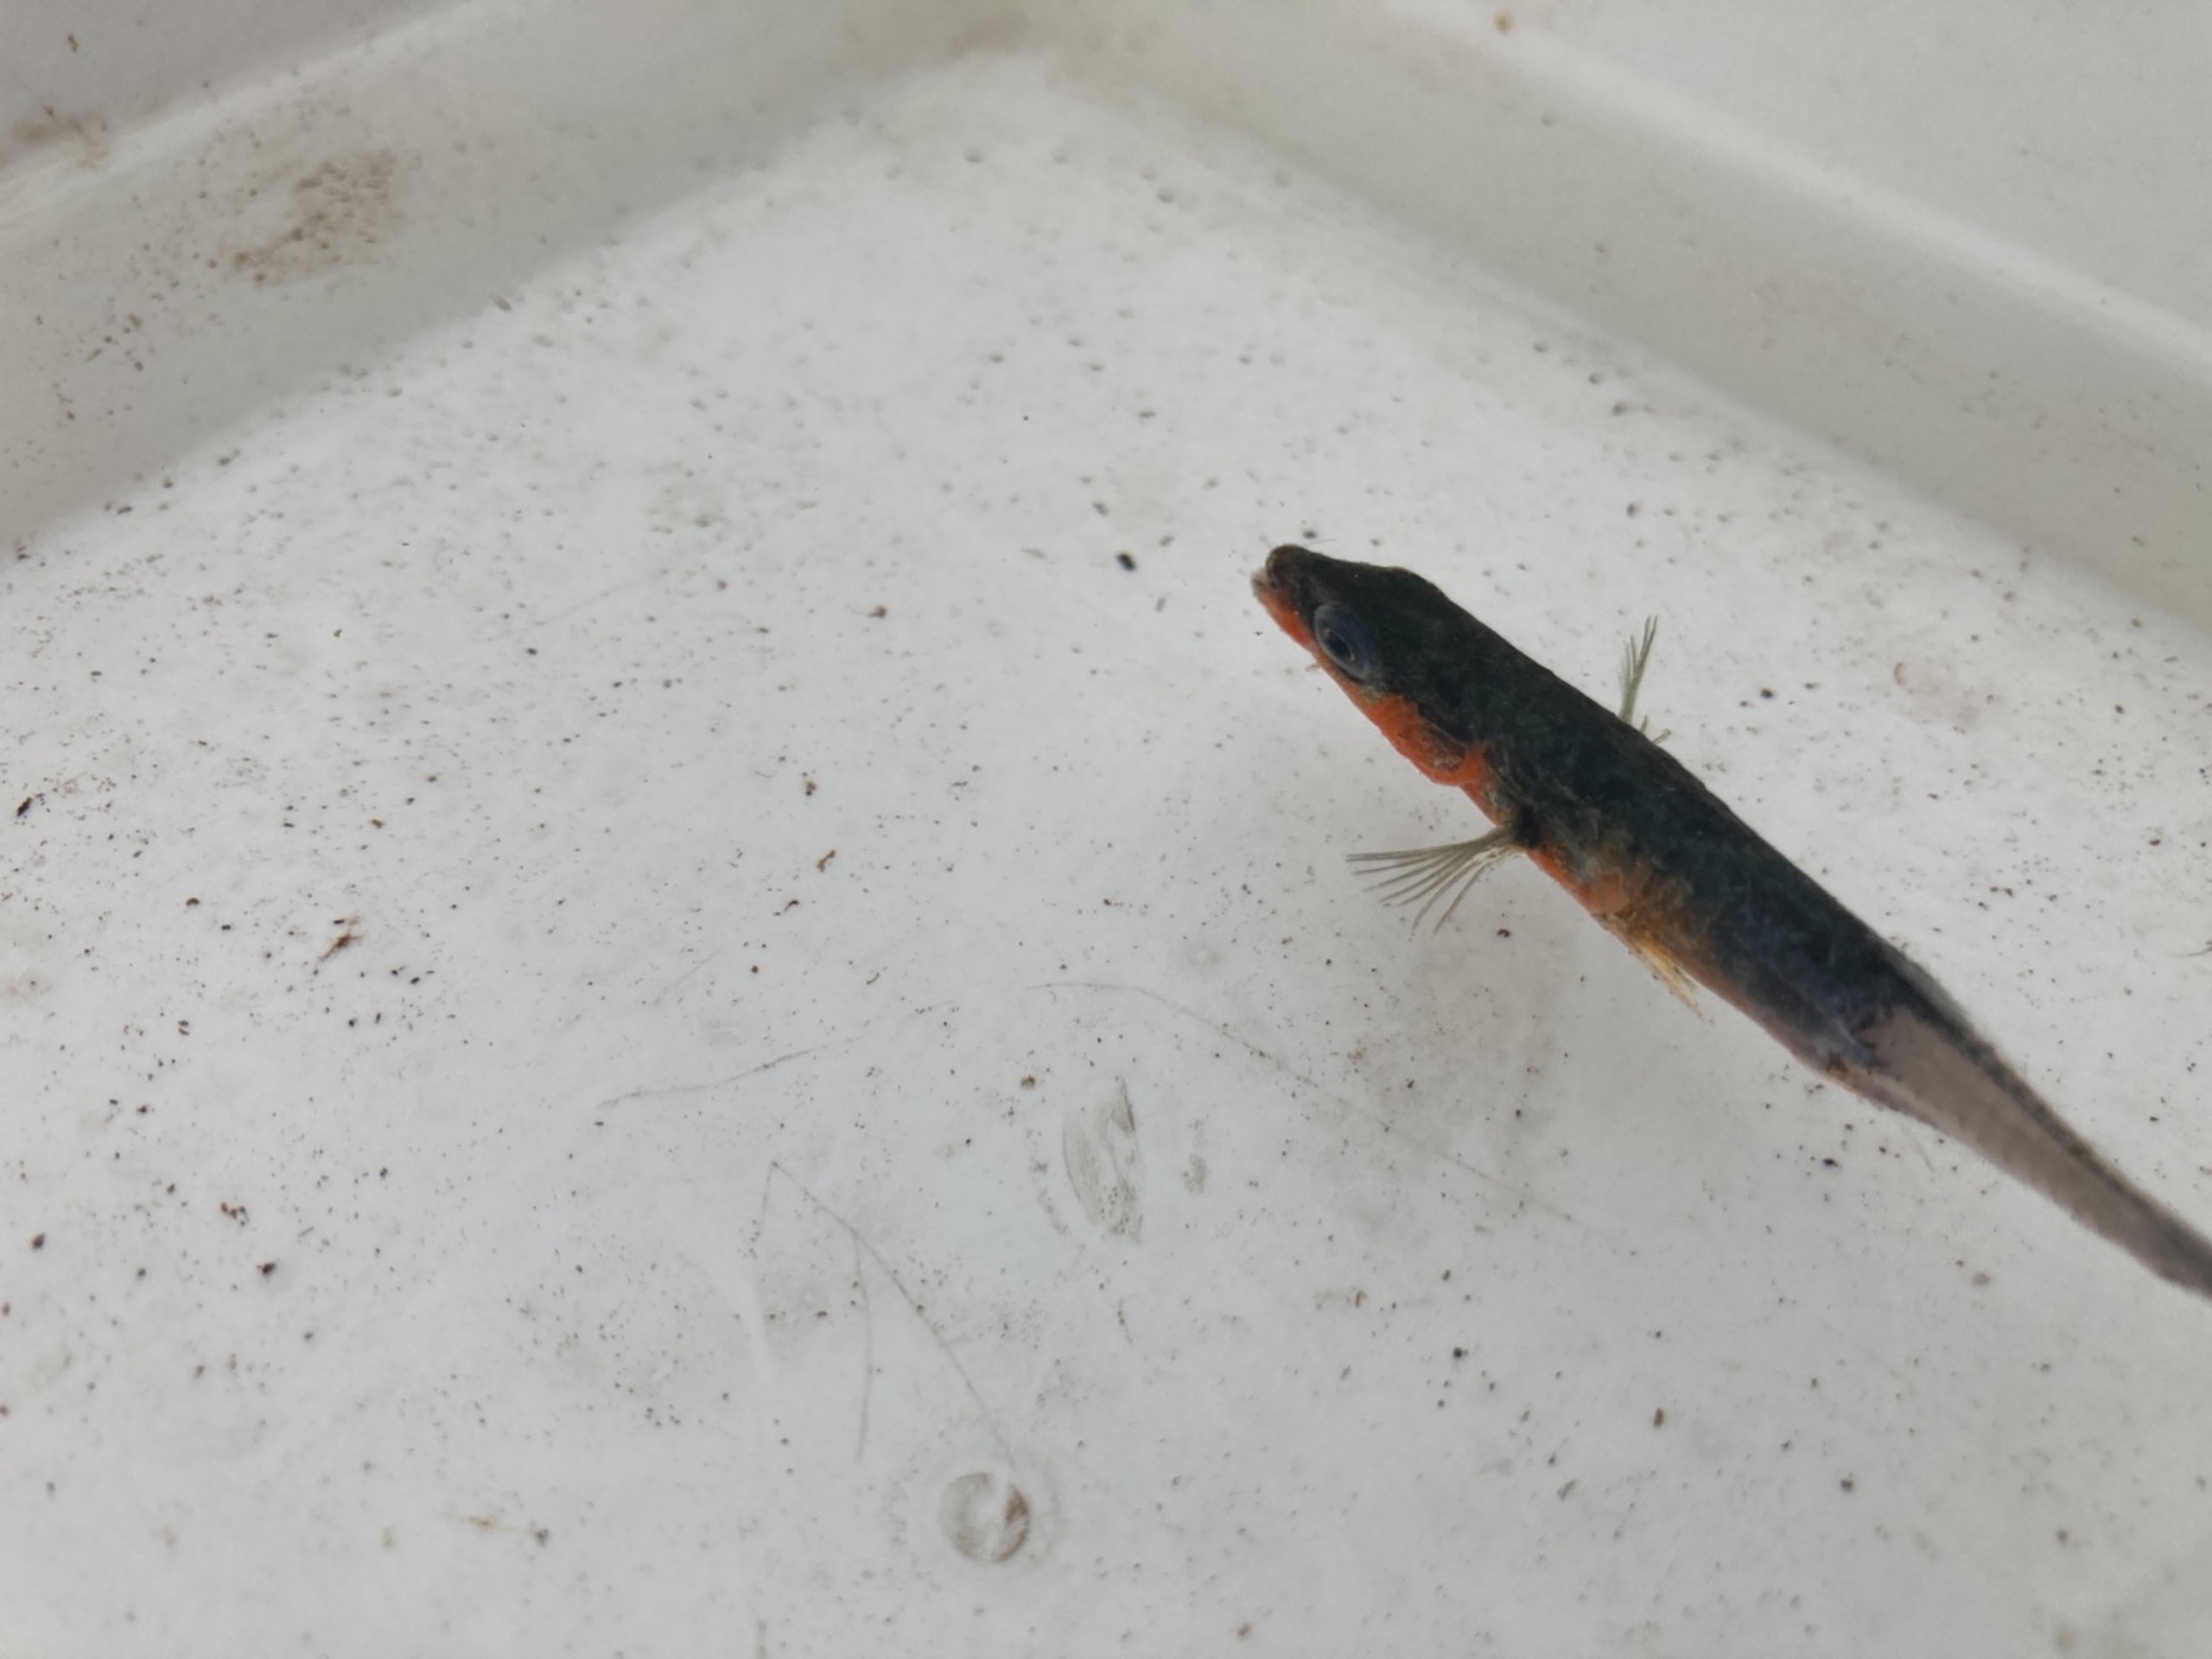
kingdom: Animalia
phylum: Chordata
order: Gasterosteiformes
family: Gasterosteidae
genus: Gasterosteus
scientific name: Gasterosteus aculeatus
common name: Trepigget hundestejle
